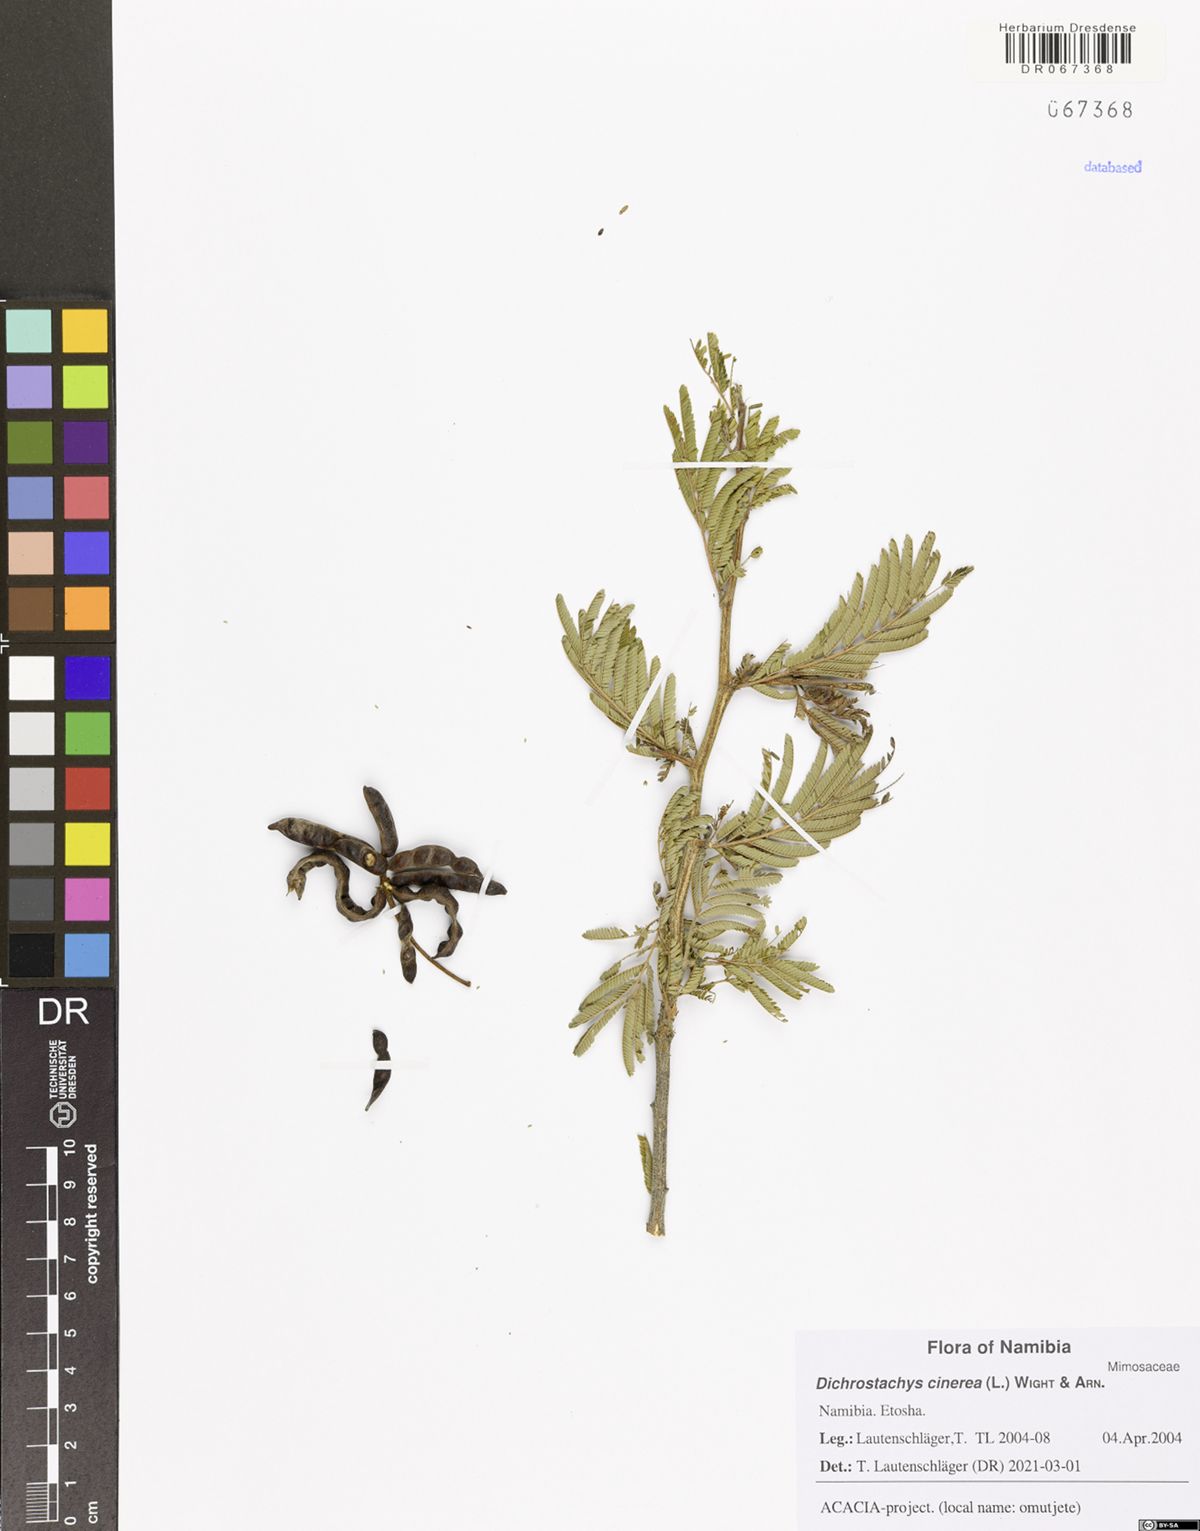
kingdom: Plantae
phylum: Tracheophyta
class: Magnoliopsida
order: Fabales
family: Fabaceae
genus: Dichrostachys
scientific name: Dichrostachys cinerea
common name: Sicklebush
